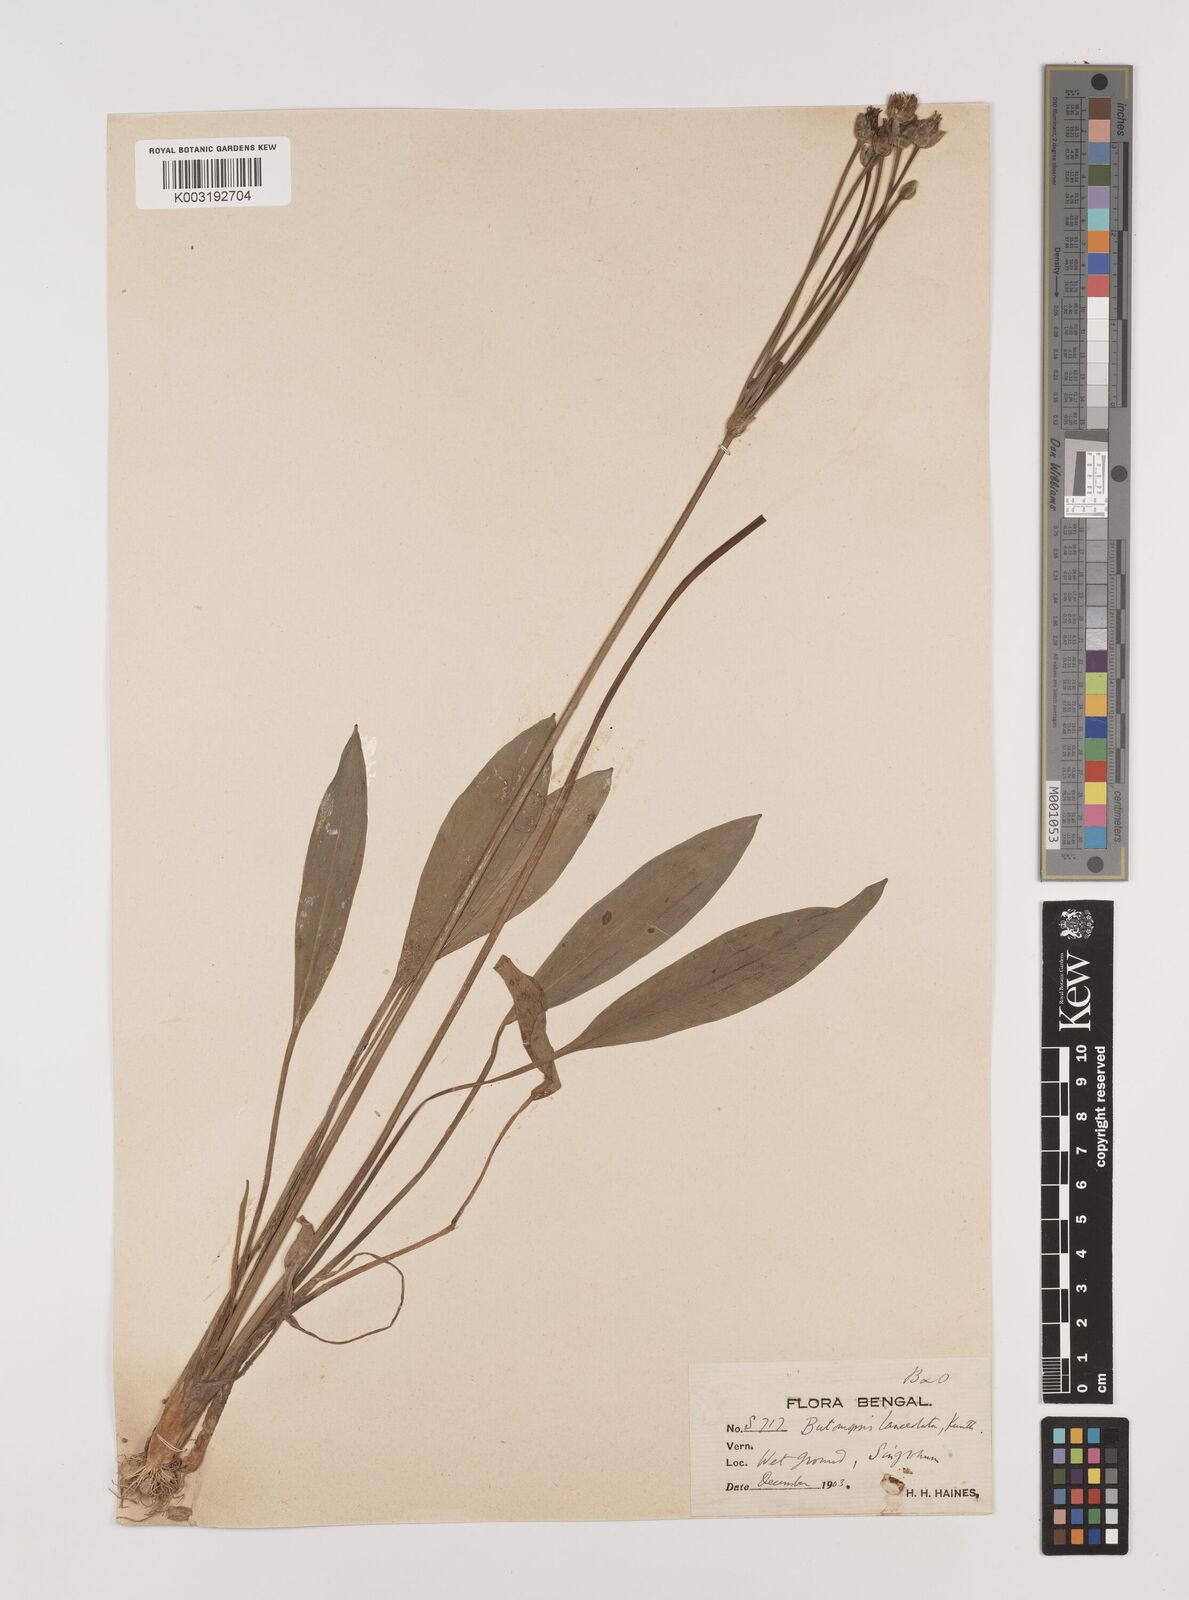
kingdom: Plantae
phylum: Tracheophyta
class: Liliopsida
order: Alismatales
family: Alismataceae
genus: Butomopsis
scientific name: Butomopsis latifolia
